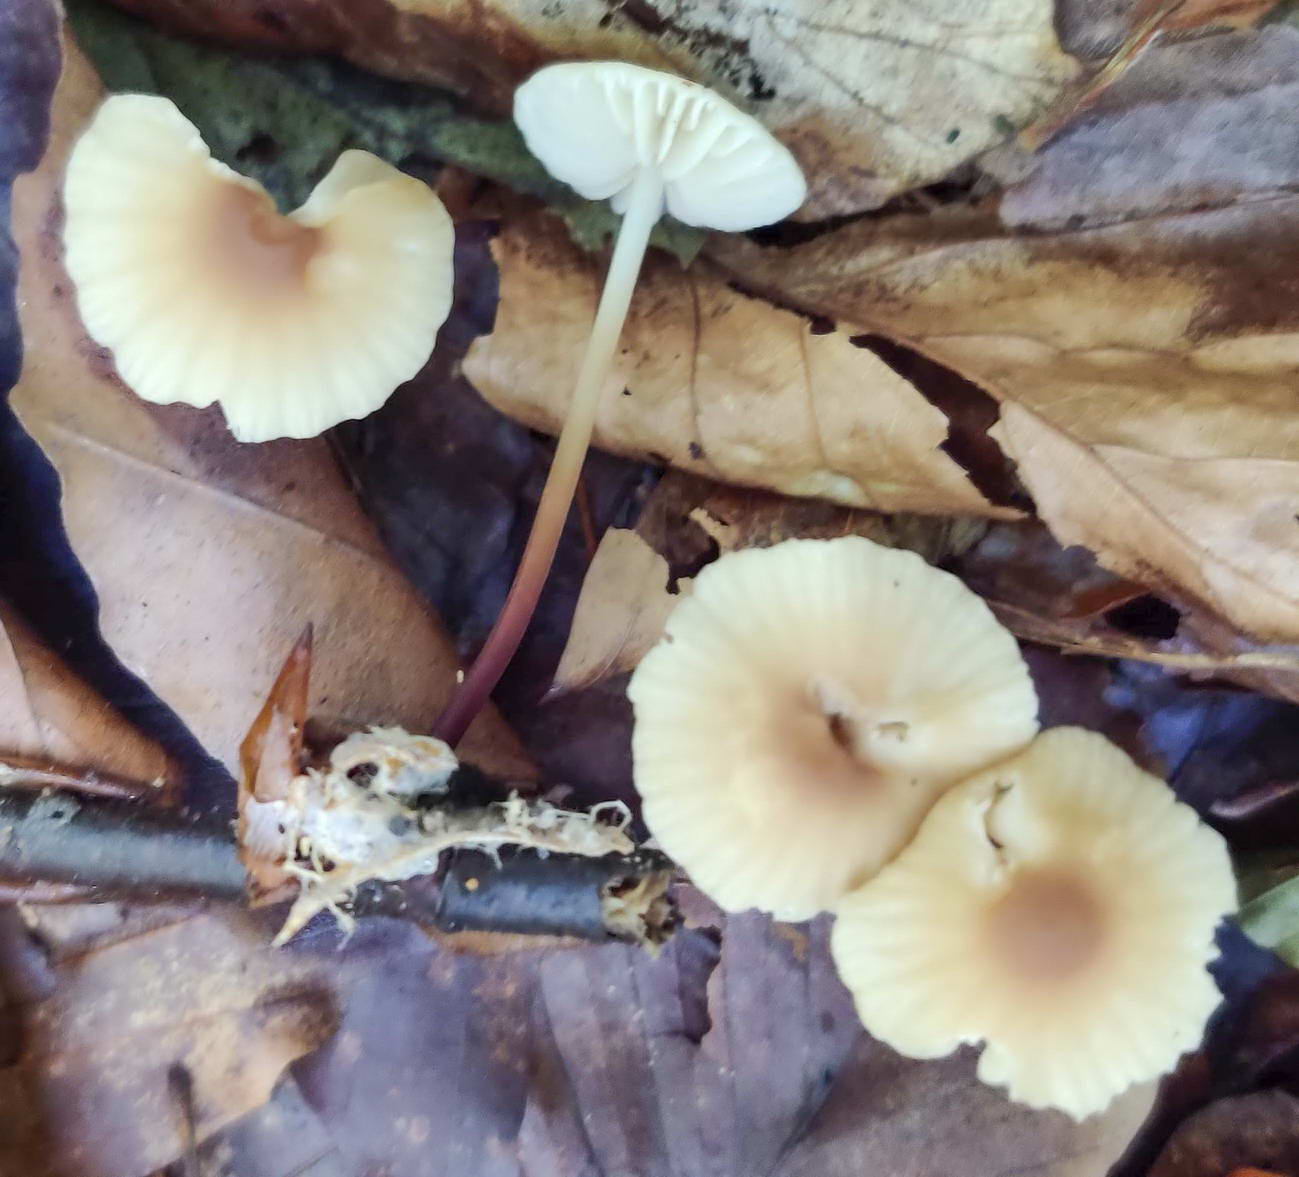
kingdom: Fungi
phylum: Basidiomycota
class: Agaricomycetes
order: Agaricales
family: Marasmiaceae
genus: Marasmius
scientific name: Marasmius torquescens
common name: filtfodet bruskhat
